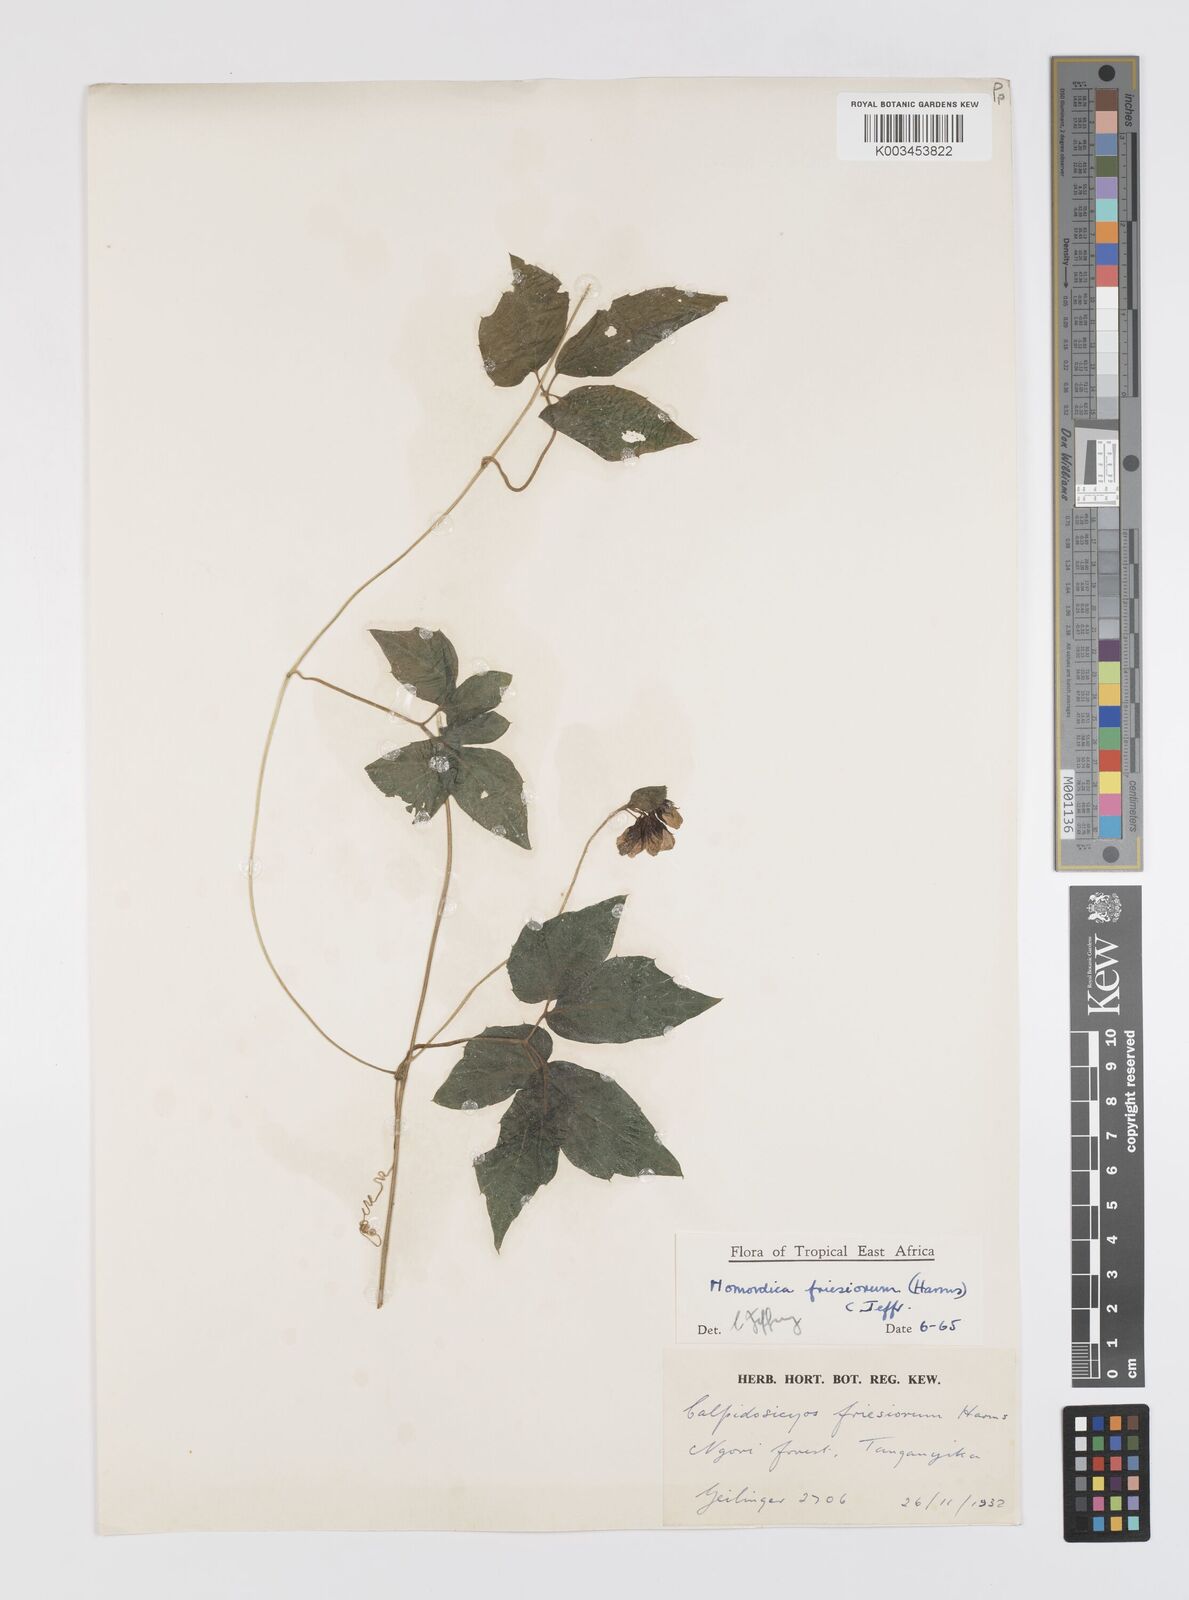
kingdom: Plantae
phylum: Tracheophyta
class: Magnoliopsida
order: Cucurbitales
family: Cucurbitaceae
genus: Momordica
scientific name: Momordica friesiorum
